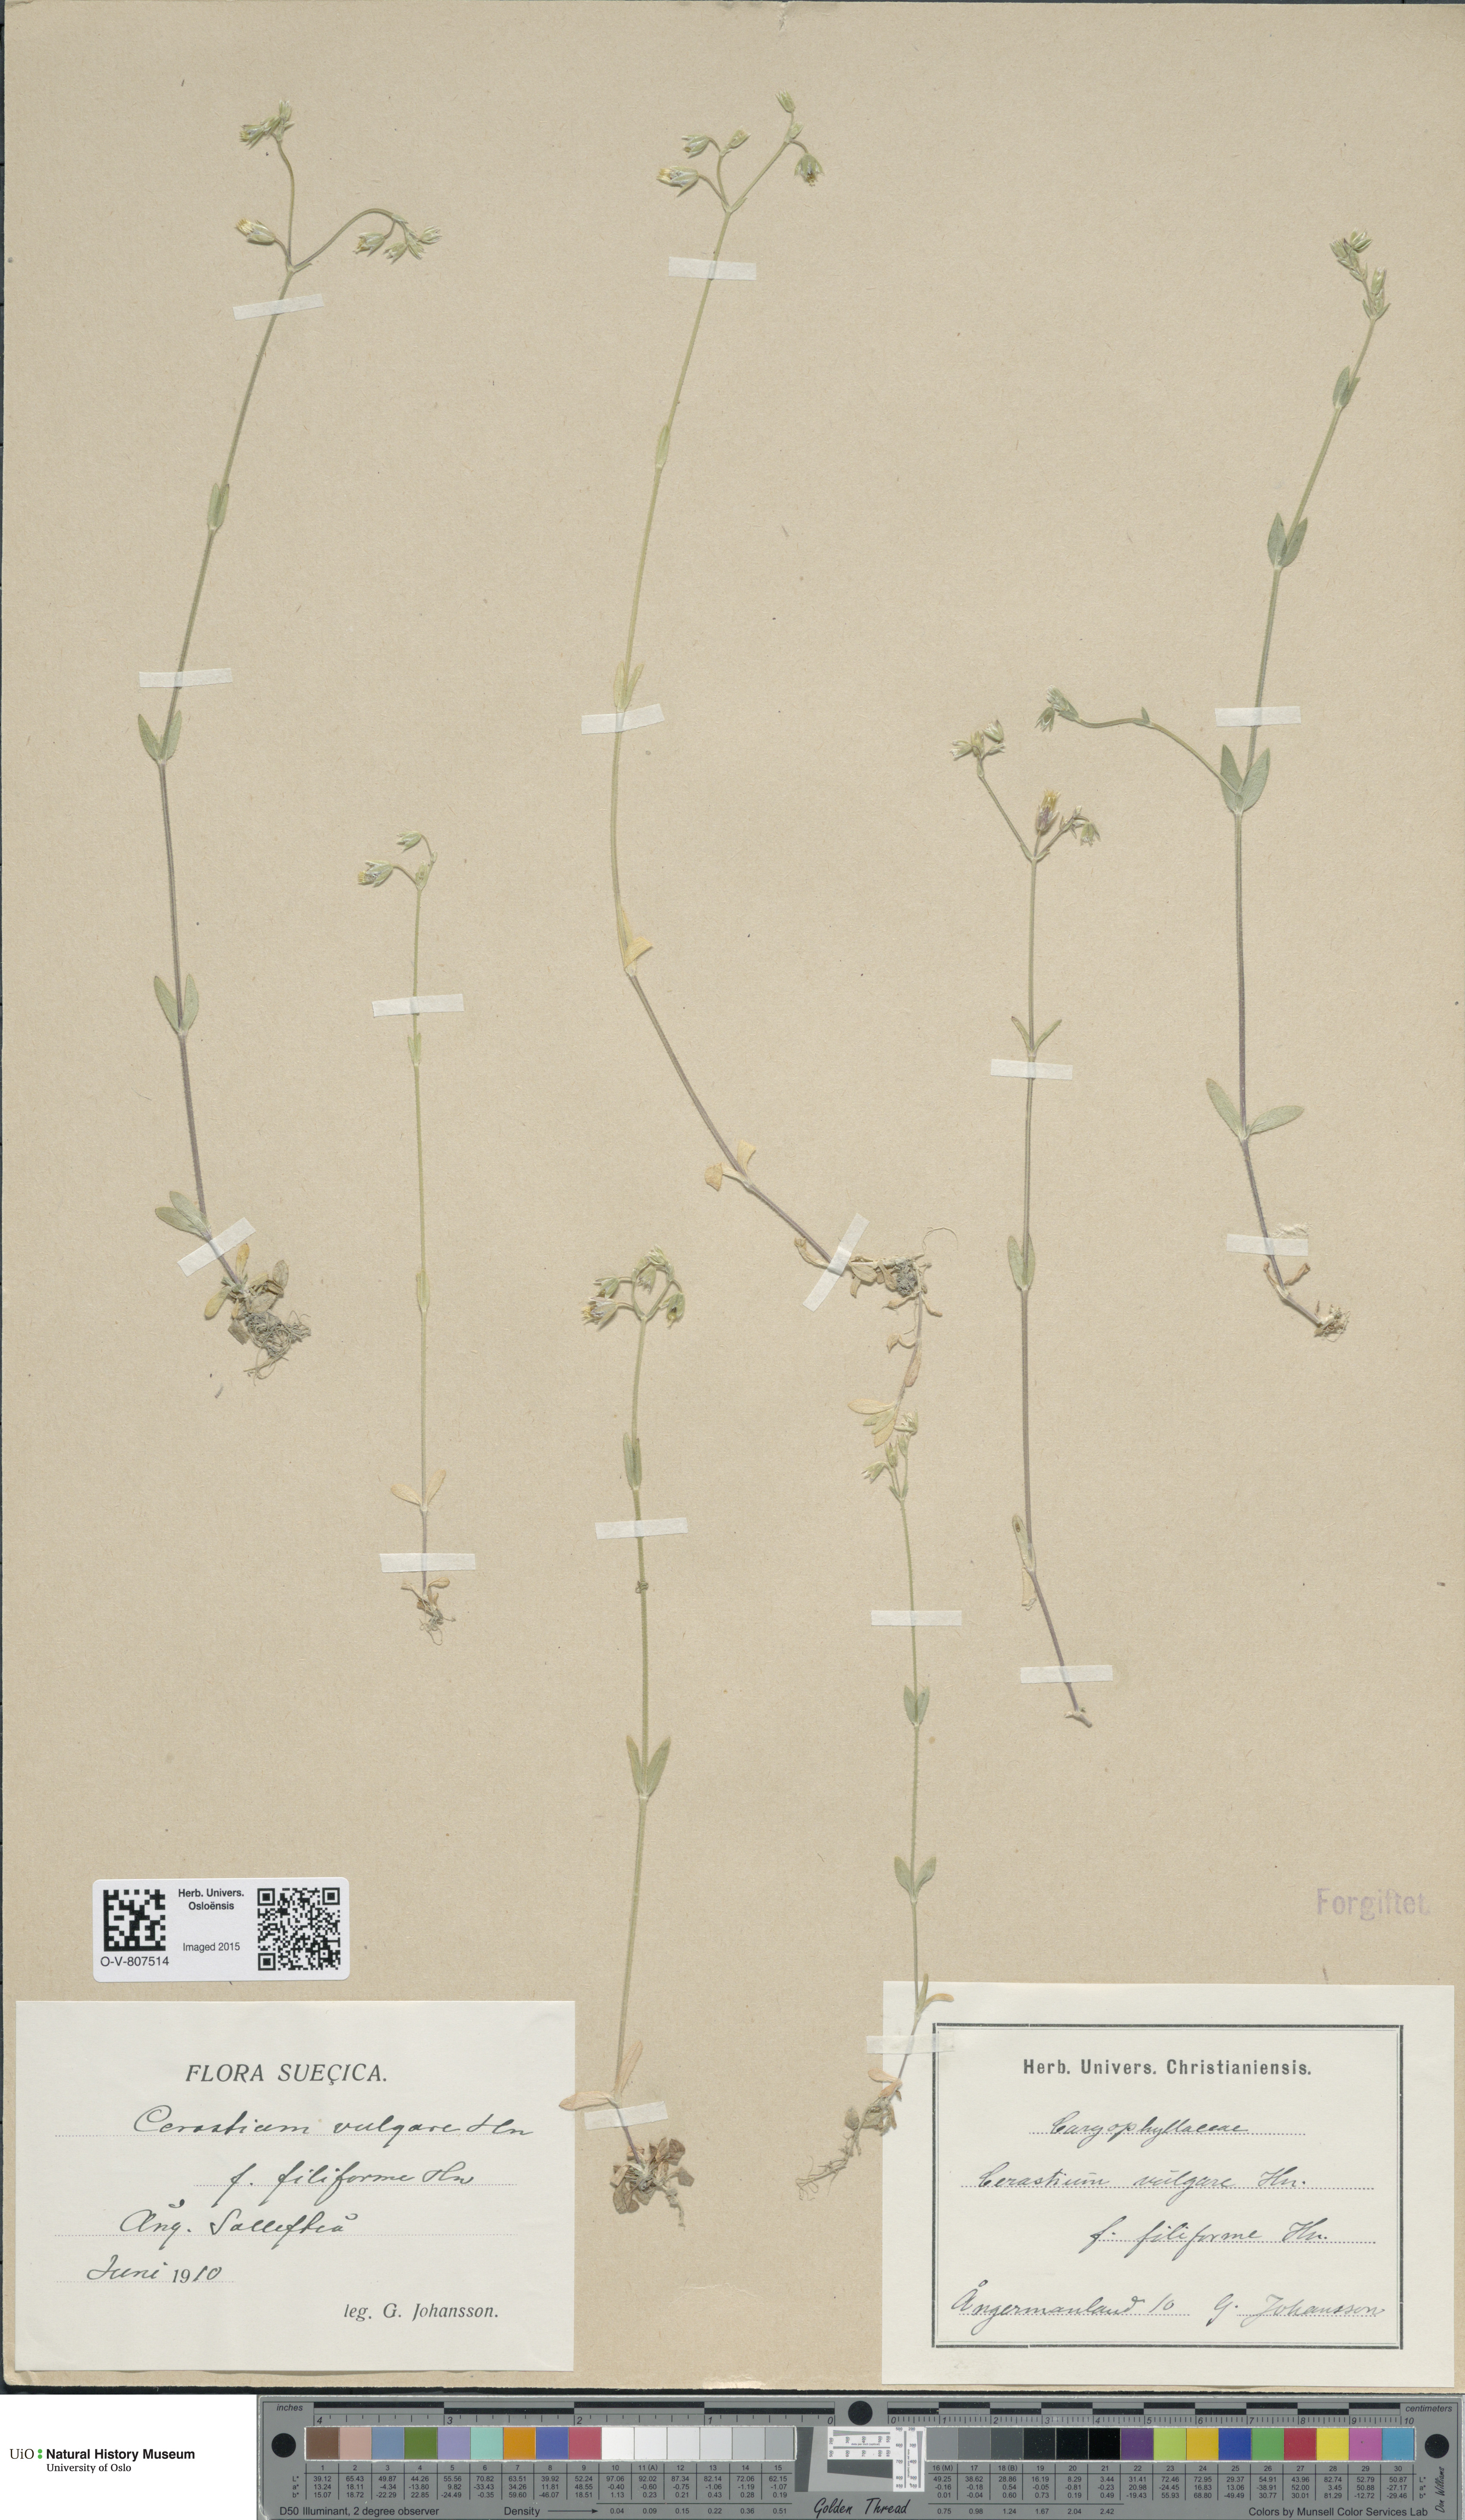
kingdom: Plantae
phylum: Tracheophyta
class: Magnoliopsida
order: Caryophyllales
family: Caryophyllaceae
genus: Cerastium
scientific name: Cerastium holosteoides
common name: Big chickweed
